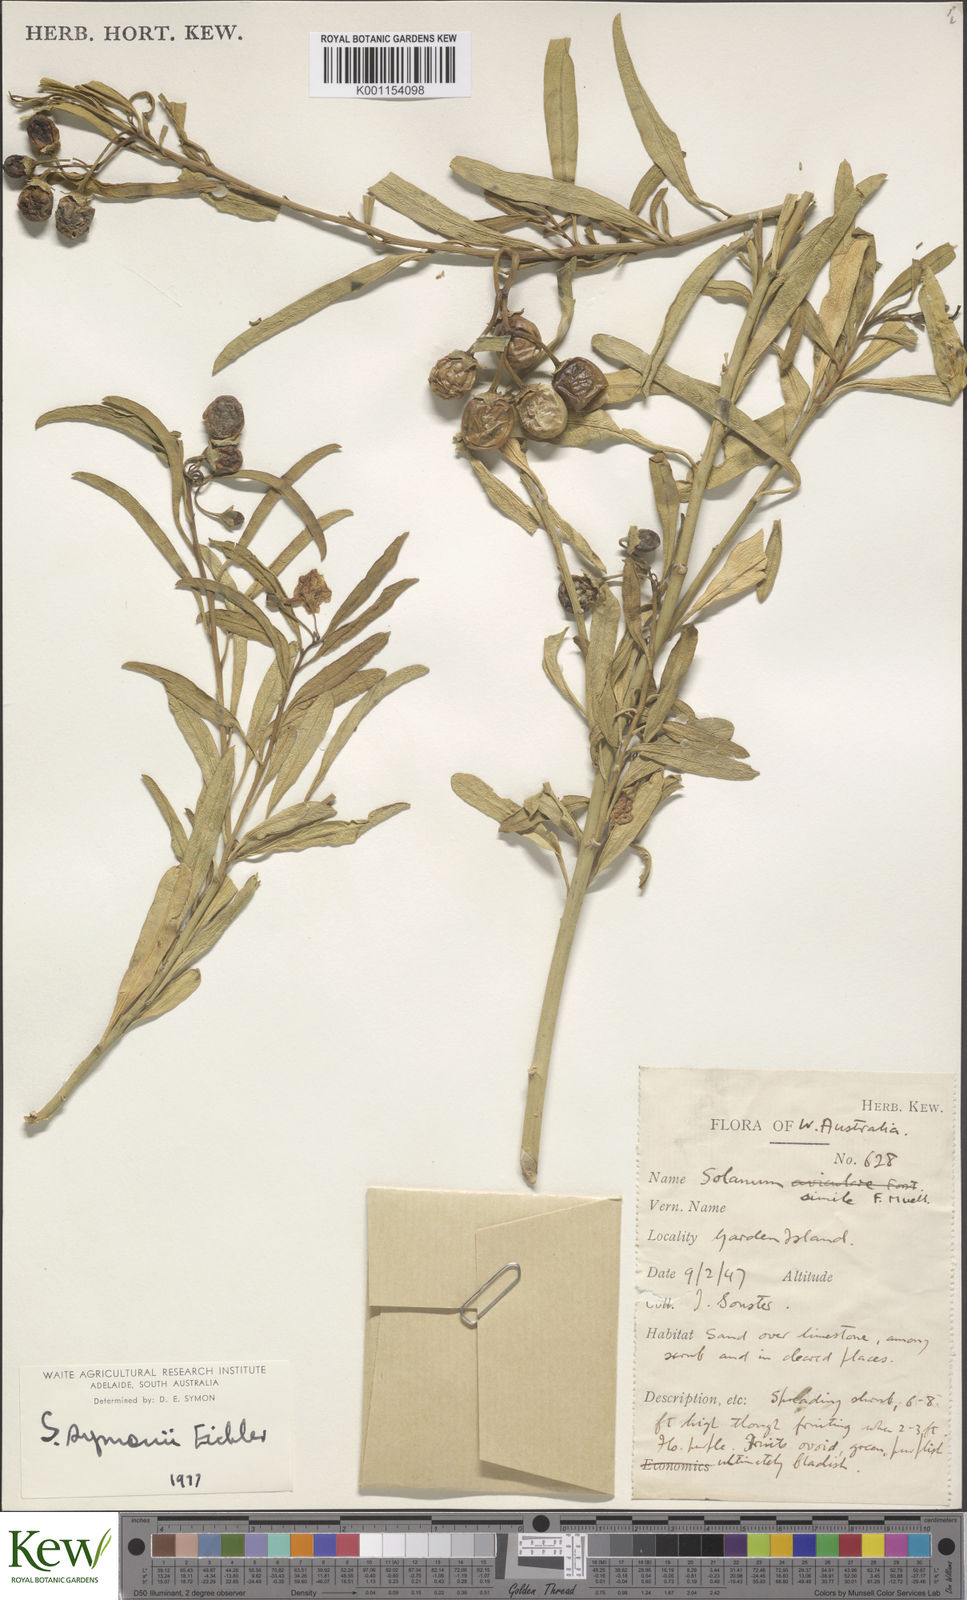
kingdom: Plantae
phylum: Tracheophyta
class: Magnoliopsida
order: Solanales
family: Solanaceae
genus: Solanum
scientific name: Solanum symonii
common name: South australian kangaroo-apple
